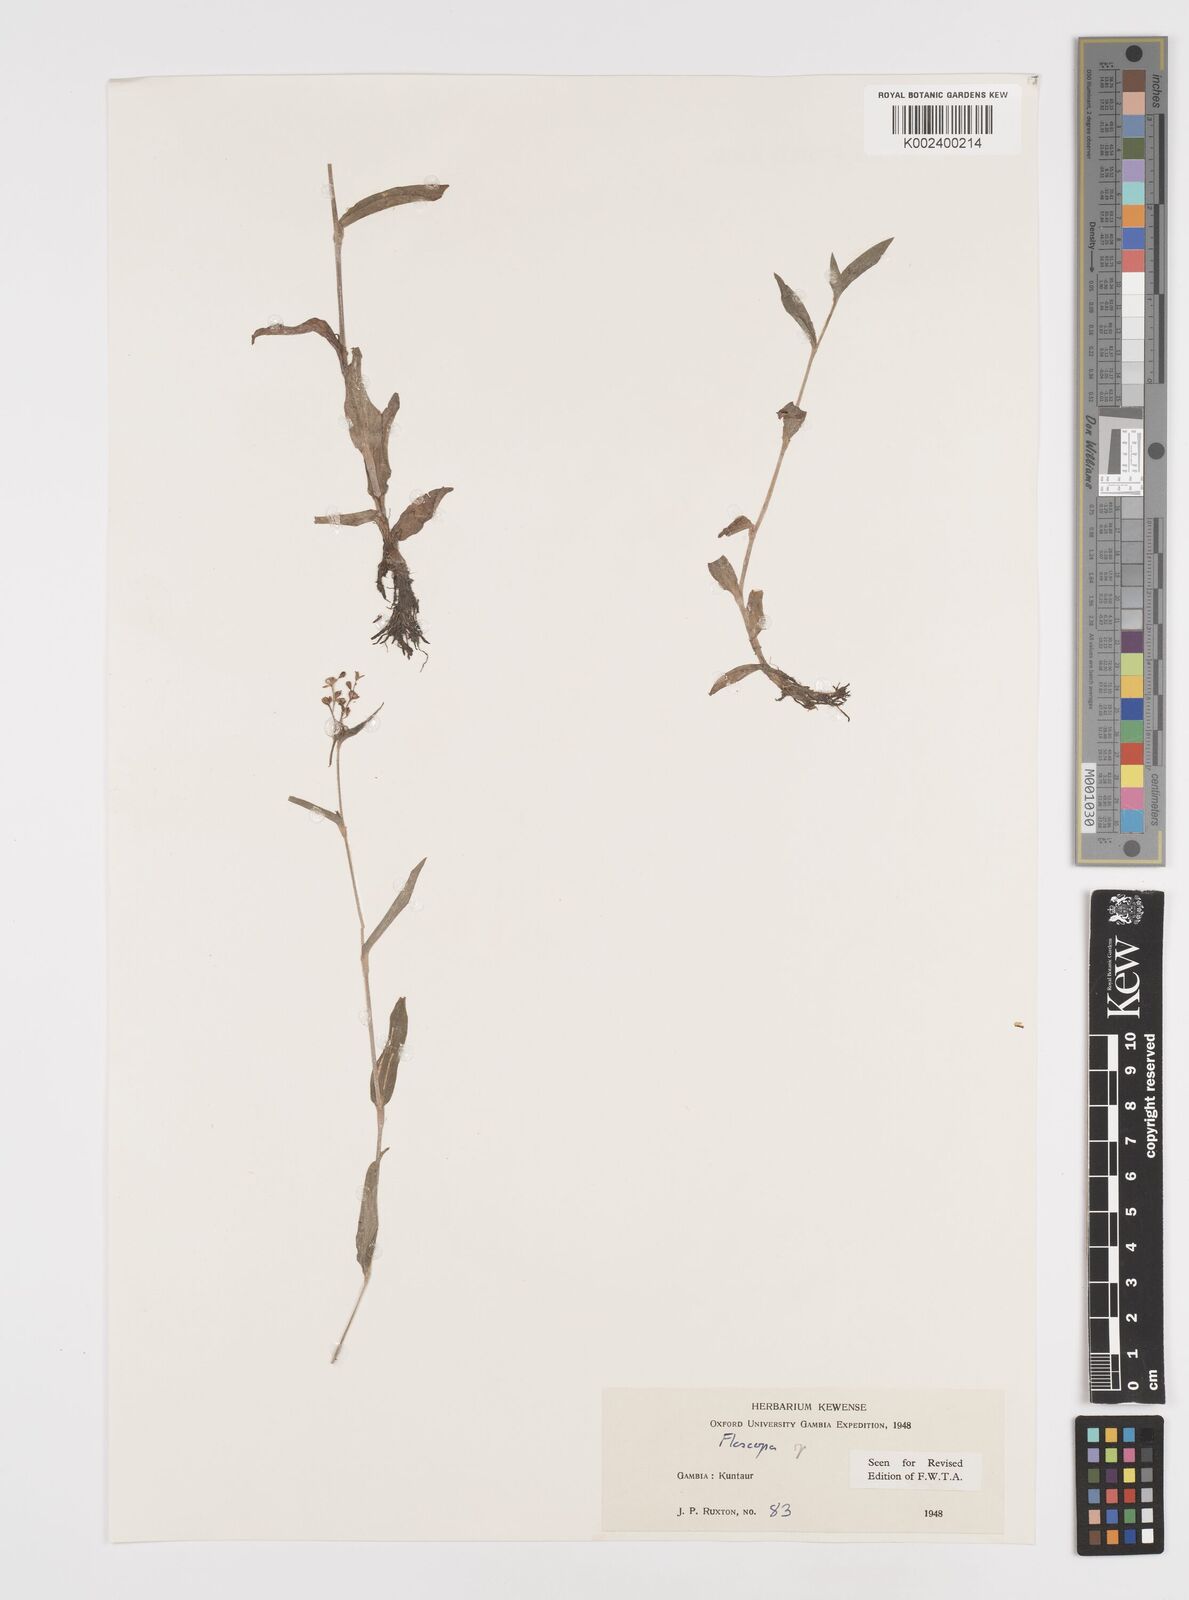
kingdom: Plantae
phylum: Tracheophyta
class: Liliopsida
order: Commelinales
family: Commelinaceae
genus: Floscopa
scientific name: Floscopa
